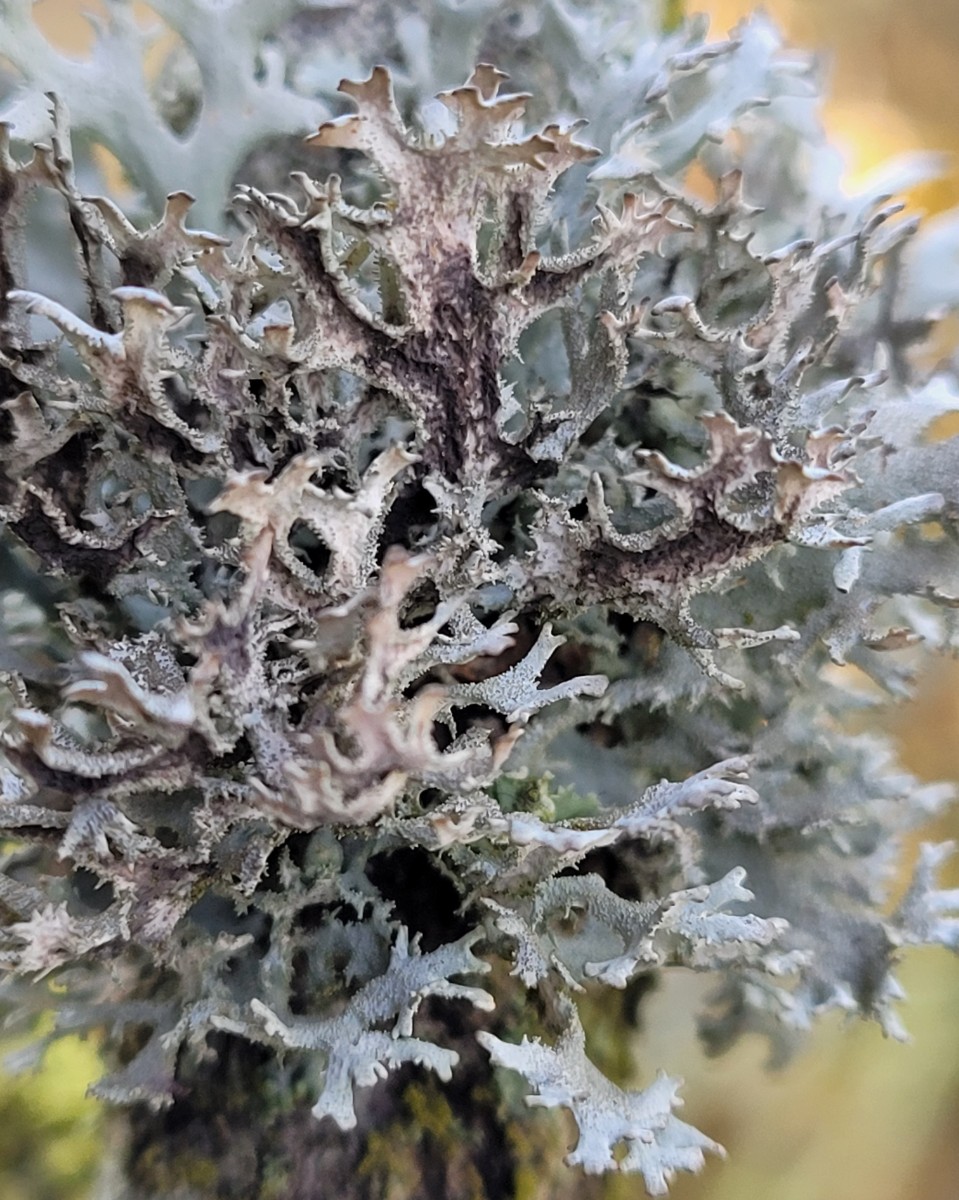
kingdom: Fungi
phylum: Ascomycota
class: Lecanoromycetes
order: Lecanorales
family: Parmeliaceae
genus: Pseudevernia
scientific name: Pseudevernia furfuracea
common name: grå fyrrelav
